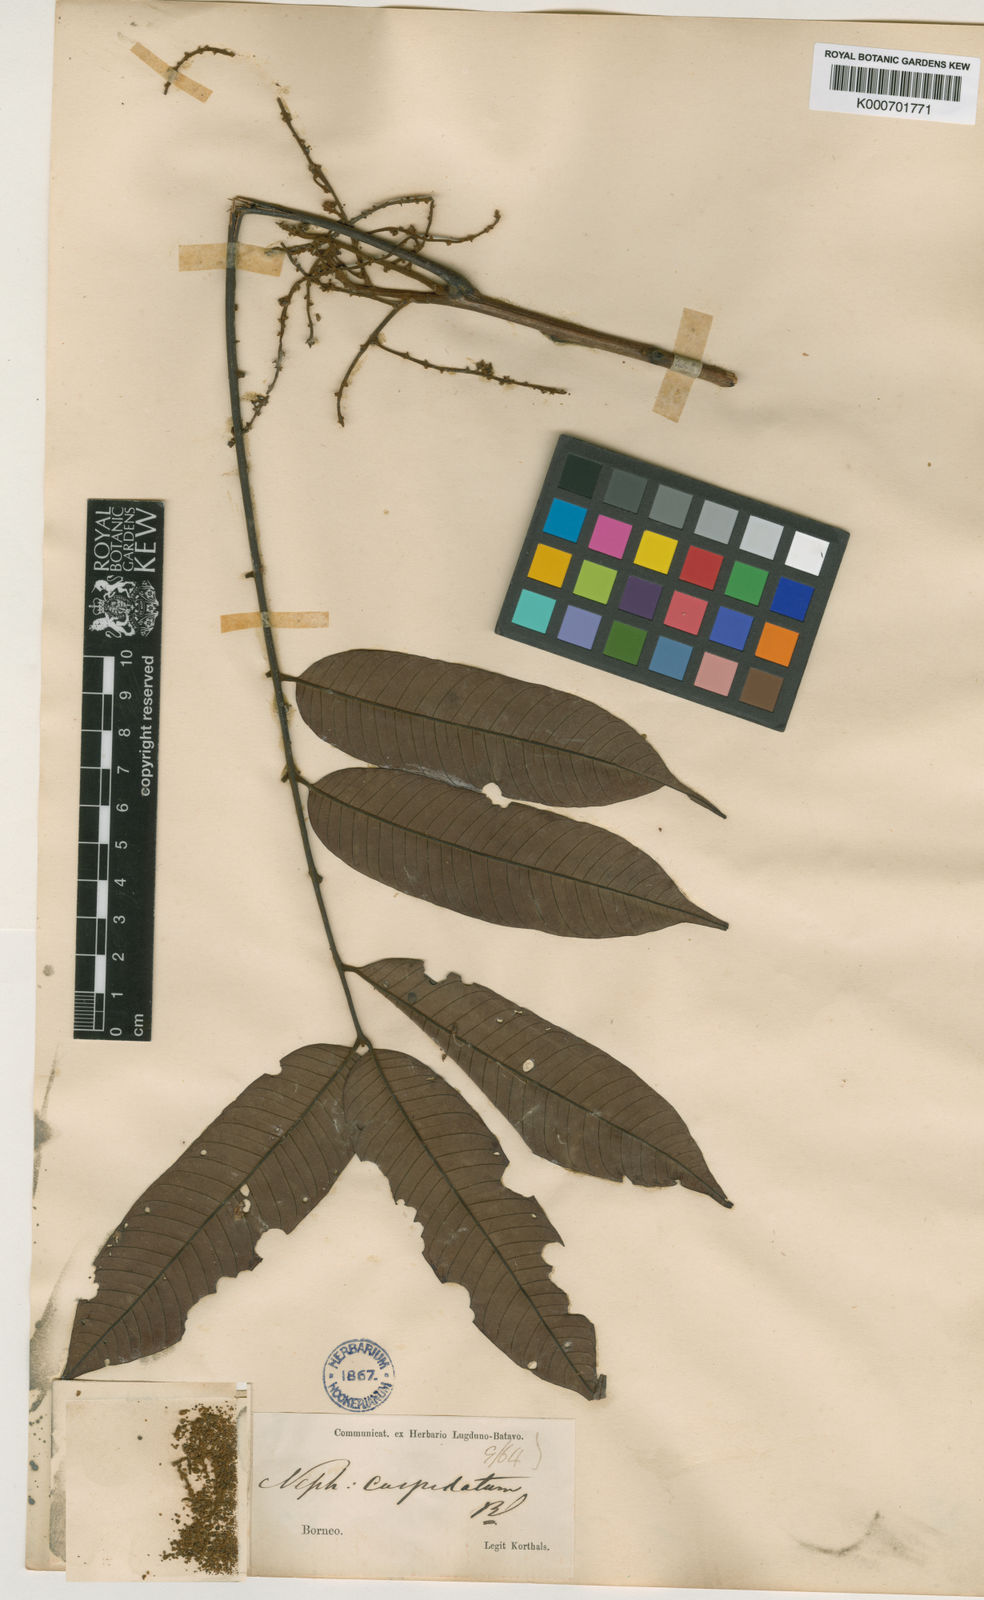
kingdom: Plantae
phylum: Tracheophyta
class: Magnoliopsida
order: Sapindales
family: Sapindaceae
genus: Nephelium
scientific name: Nephelium cuspidatum
